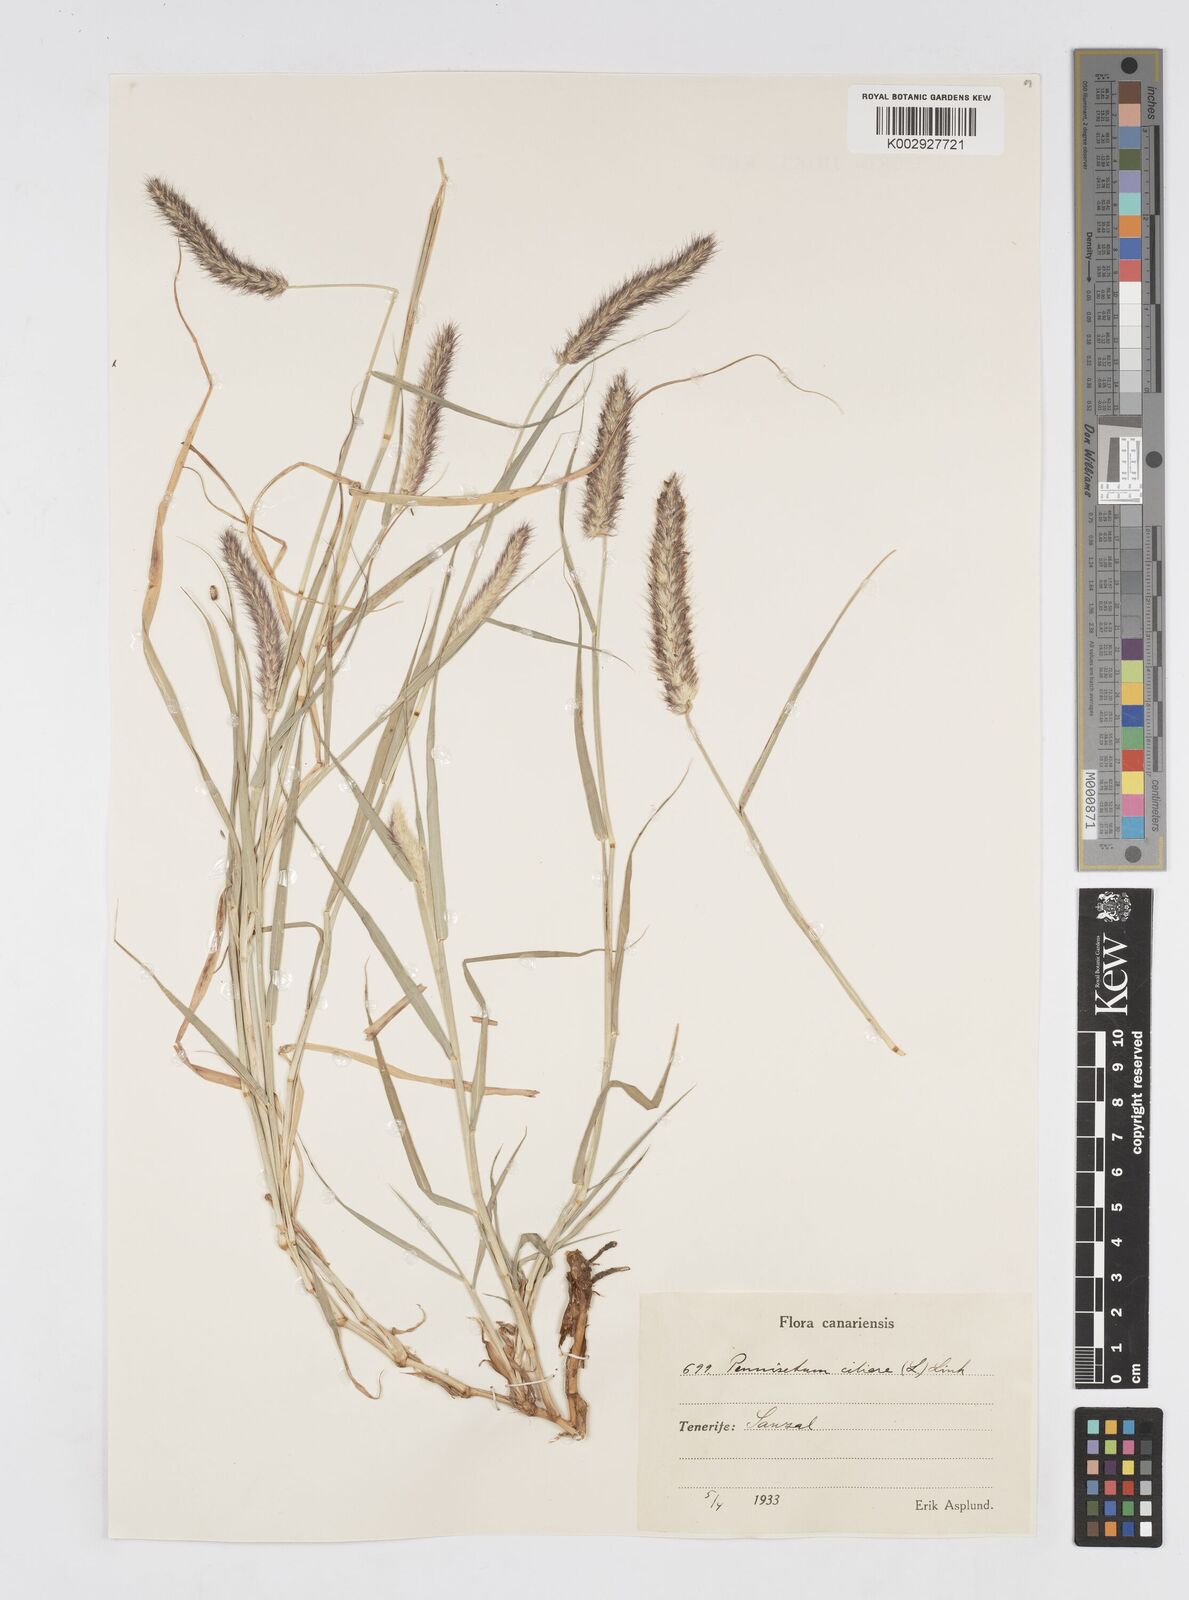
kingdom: Plantae
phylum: Tracheophyta
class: Liliopsida
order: Poales
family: Poaceae
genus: Cenchrus
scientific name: Cenchrus ciliaris
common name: Buffelgrass
